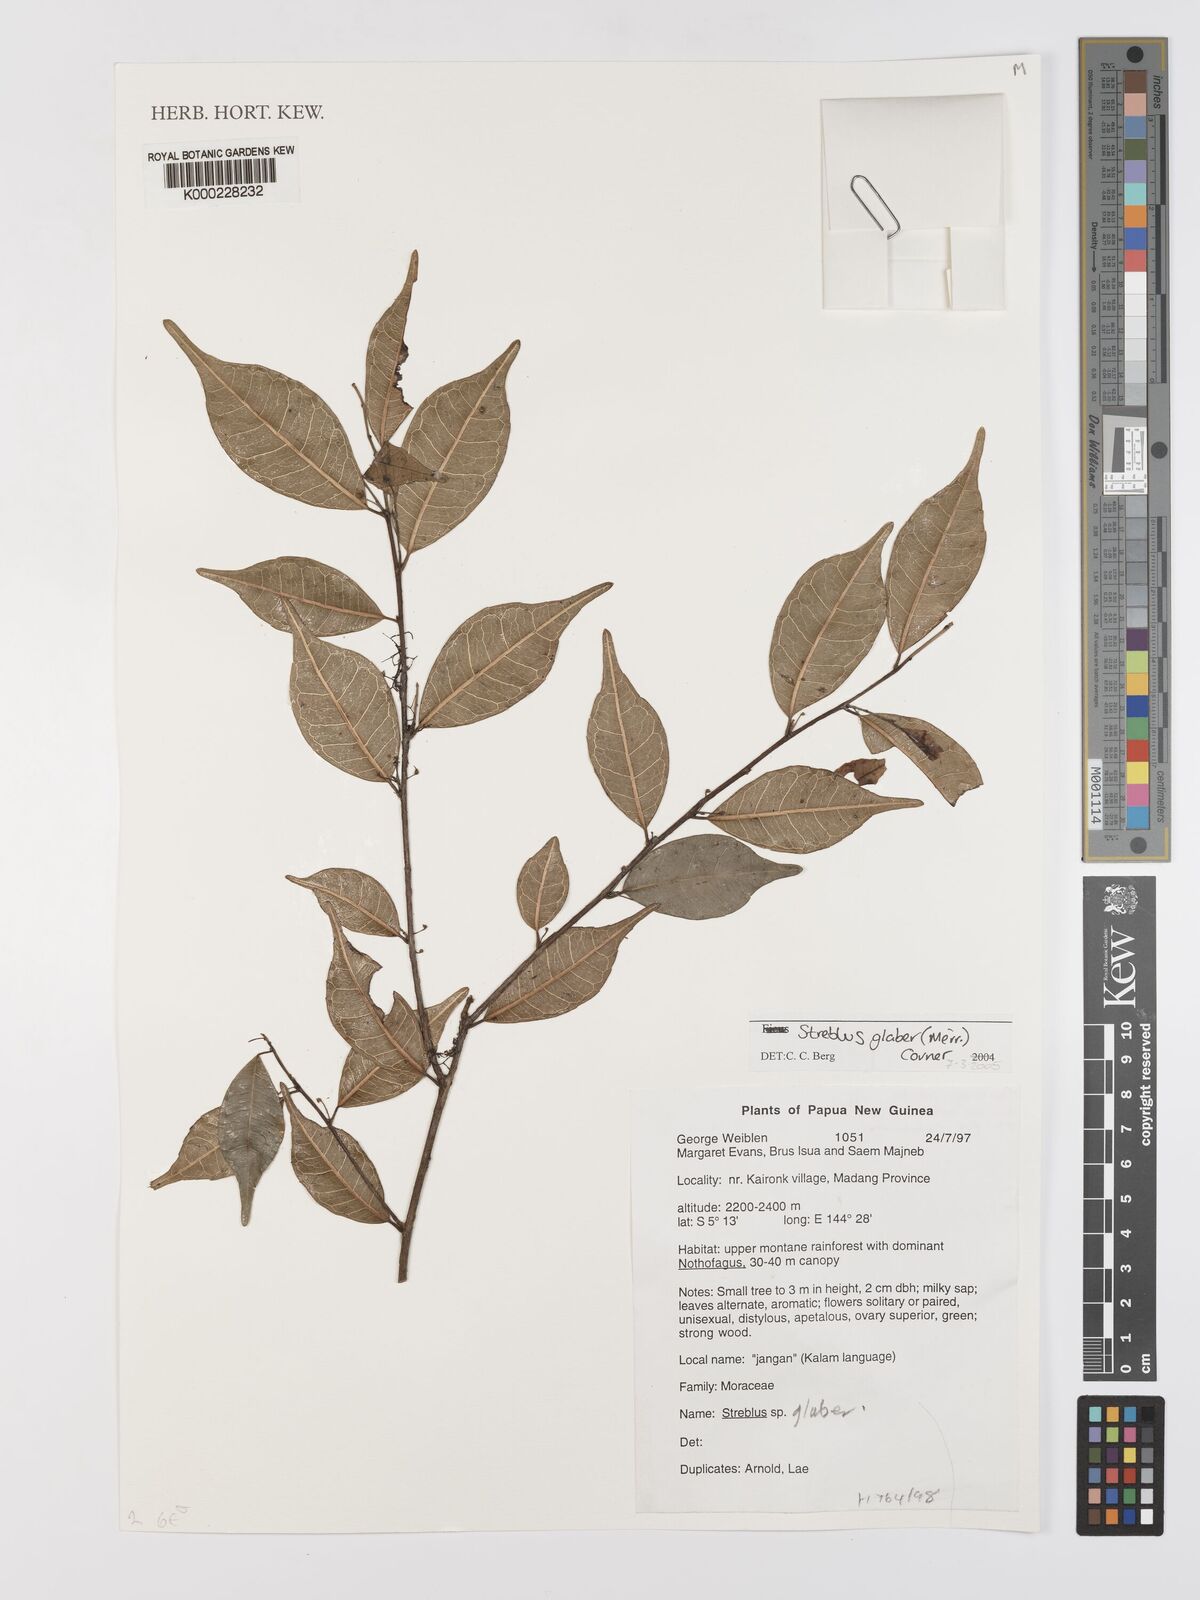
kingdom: Plantae
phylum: Tracheophyta
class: Magnoliopsida
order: Rosales
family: Moraceae
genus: Paratrophis
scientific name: Paratrophis glabra
